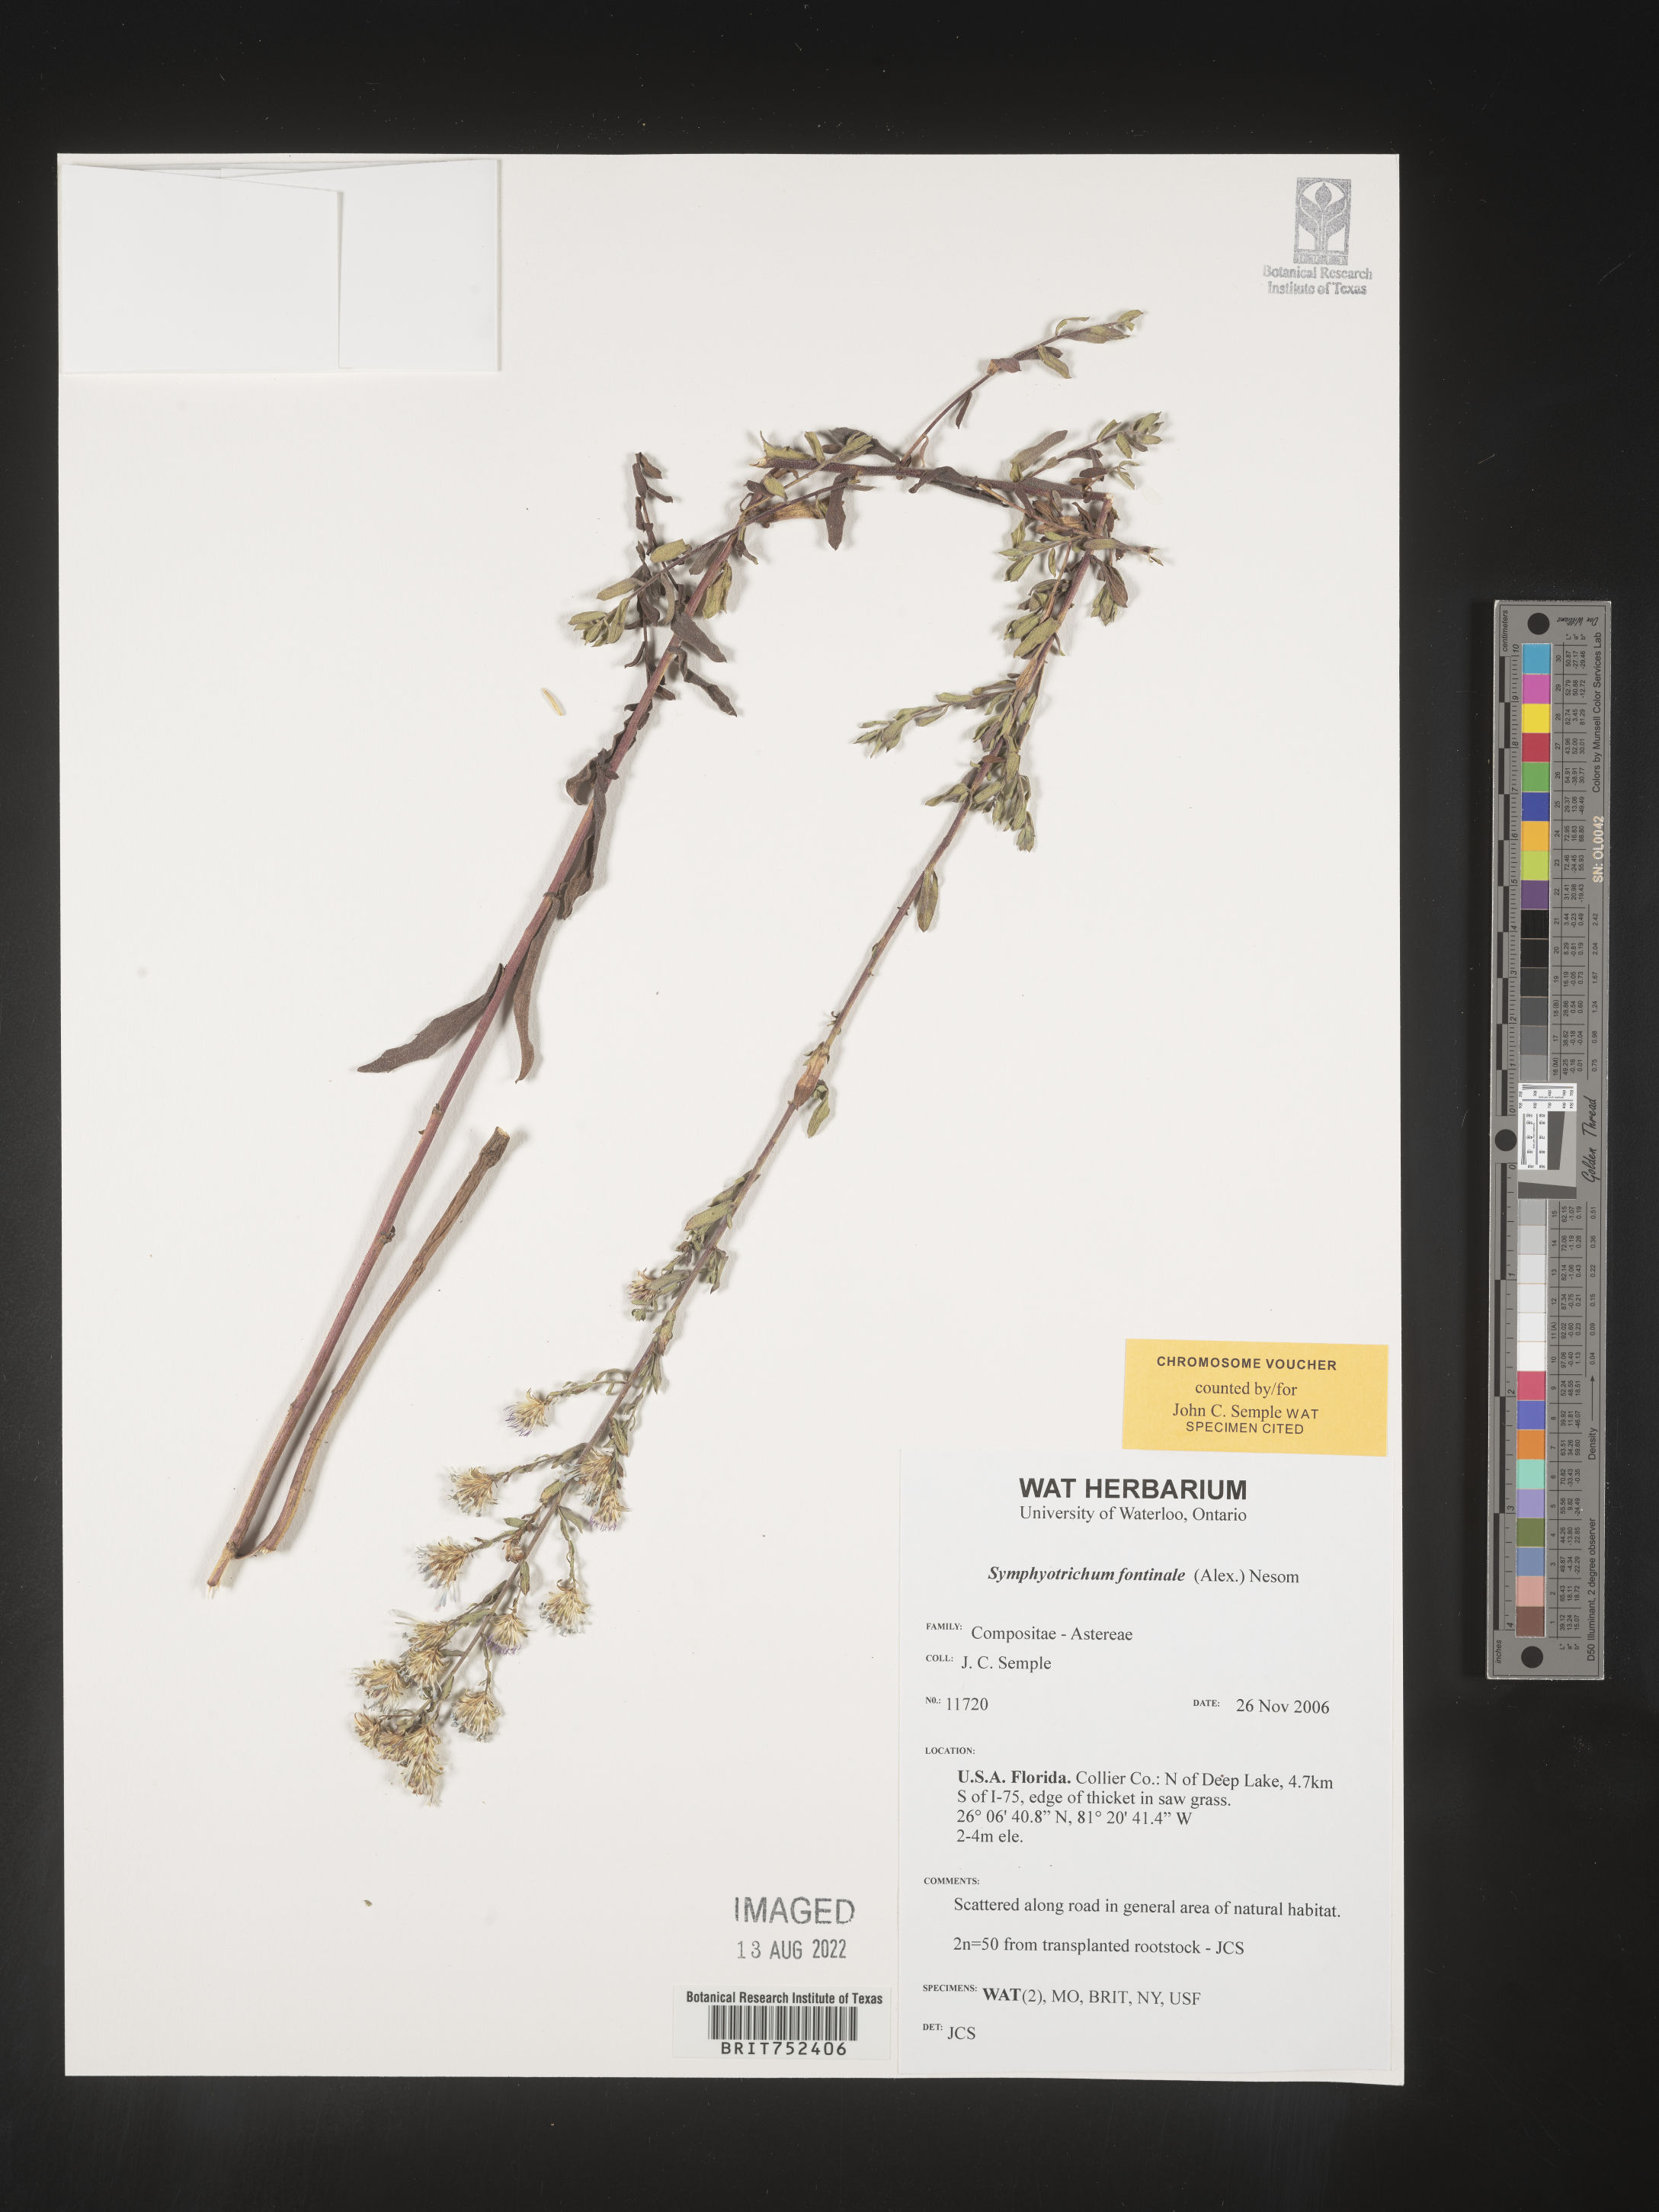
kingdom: Plantae
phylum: Tracheophyta
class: Magnoliopsida
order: Asterales
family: Asteraceae
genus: Symphyotrichum
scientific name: Symphyotrichum fontinale
